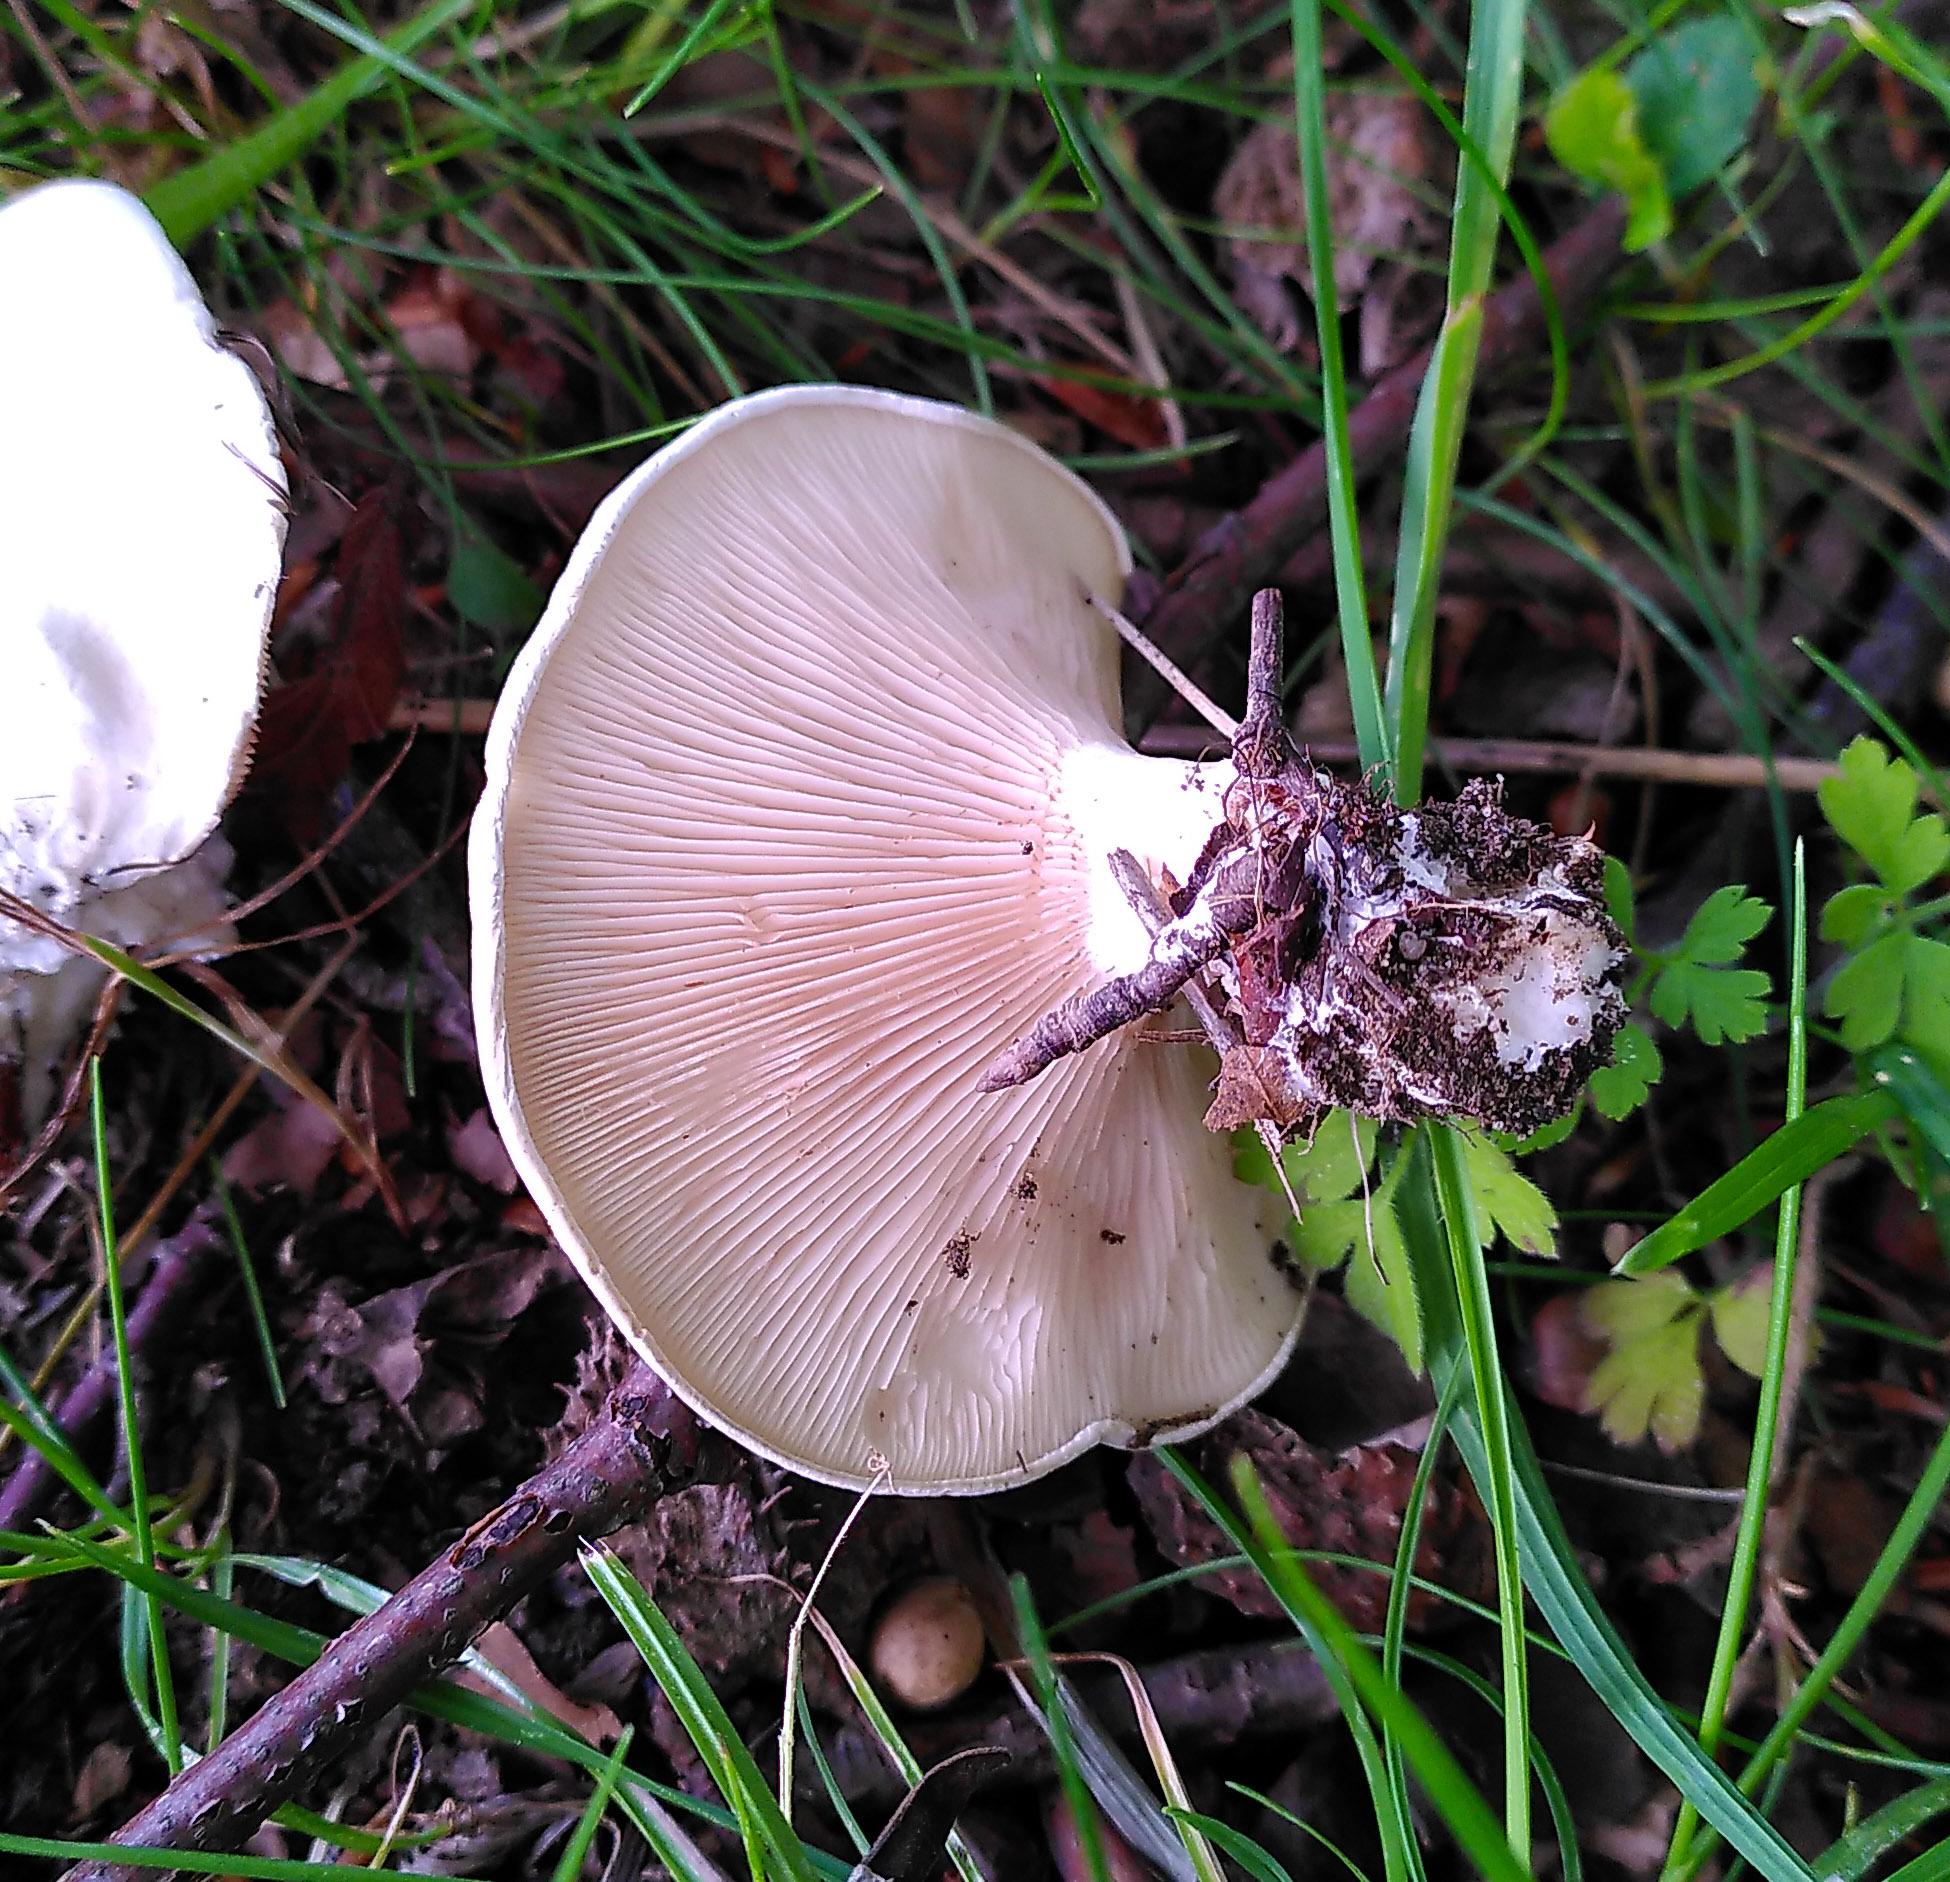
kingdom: Fungi
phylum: Basidiomycota
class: Agaricomycetes
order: Agaricales
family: Entolomataceae
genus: Clitopilus
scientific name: Clitopilus prunulus
